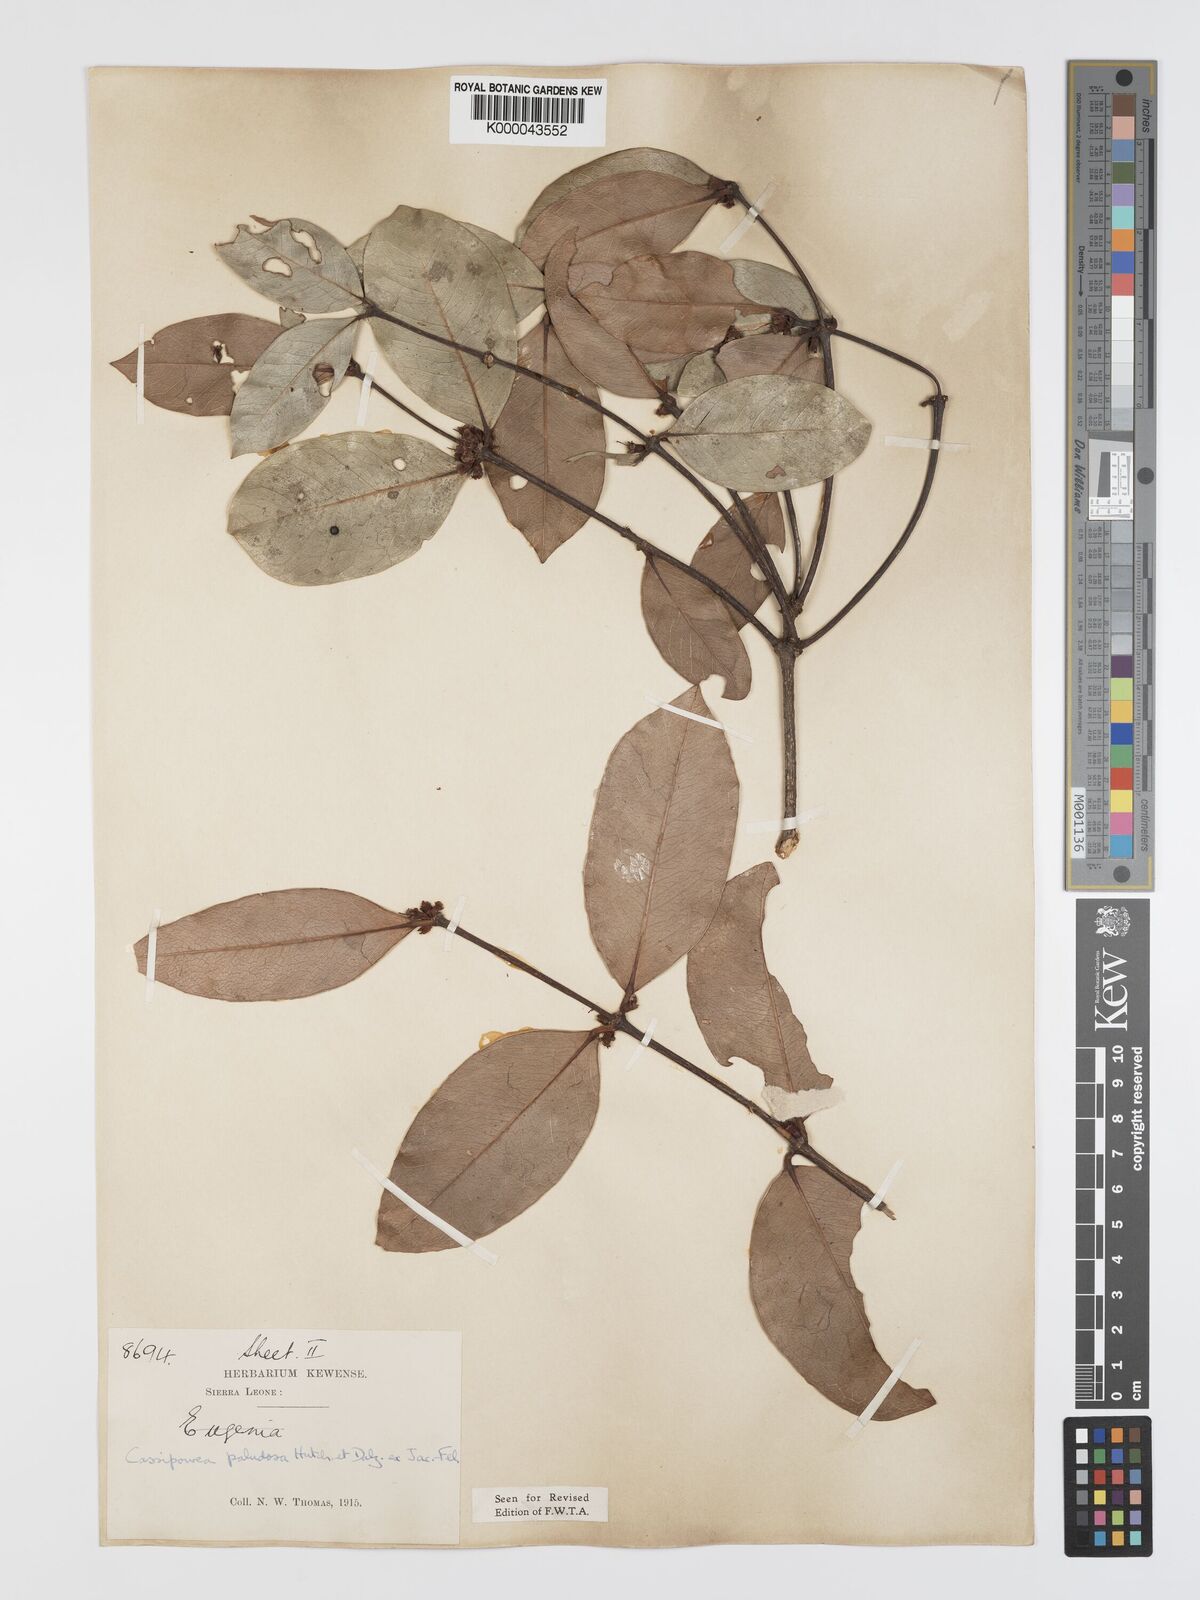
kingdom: Plantae
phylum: Tracheophyta
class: Magnoliopsida
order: Malpighiales
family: Rhizophoraceae
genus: Cassipourea
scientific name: Cassipourea
